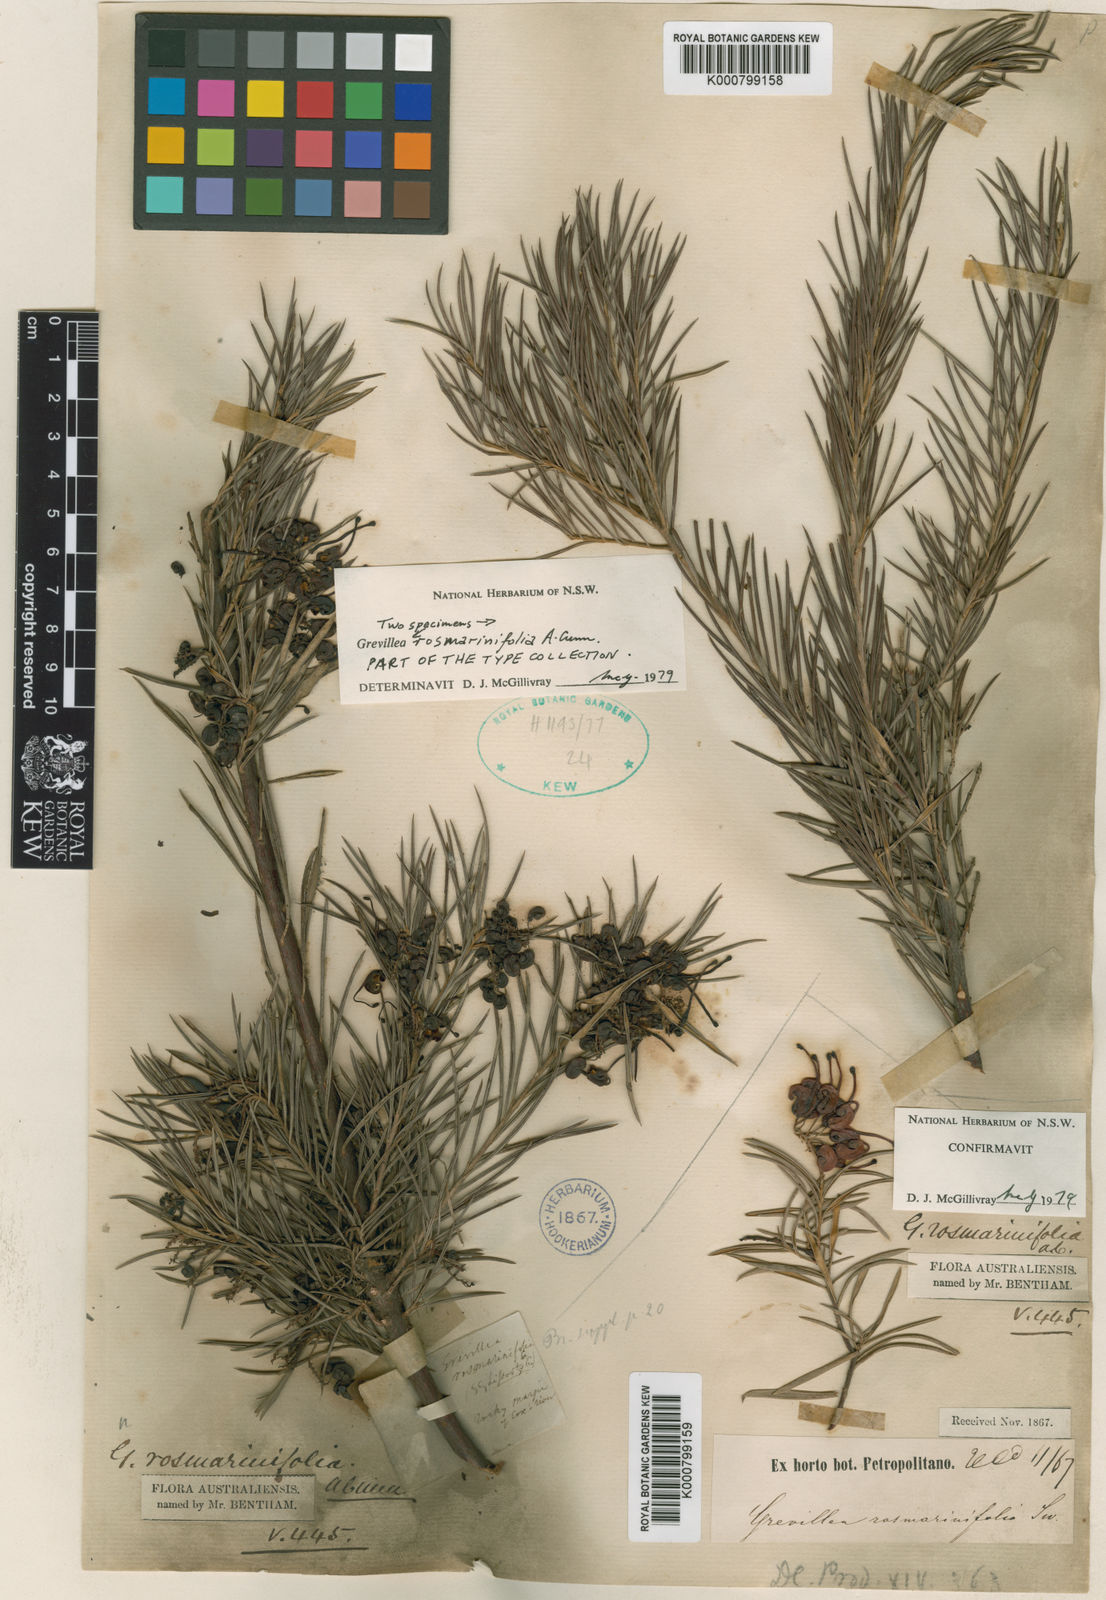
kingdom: Plantae
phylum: Tracheophyta
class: Magnoliopsida
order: Proteales
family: Proteaceae
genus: Grevillea
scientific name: Grevillea rosmarinifolia
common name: Rosemary grevillea
